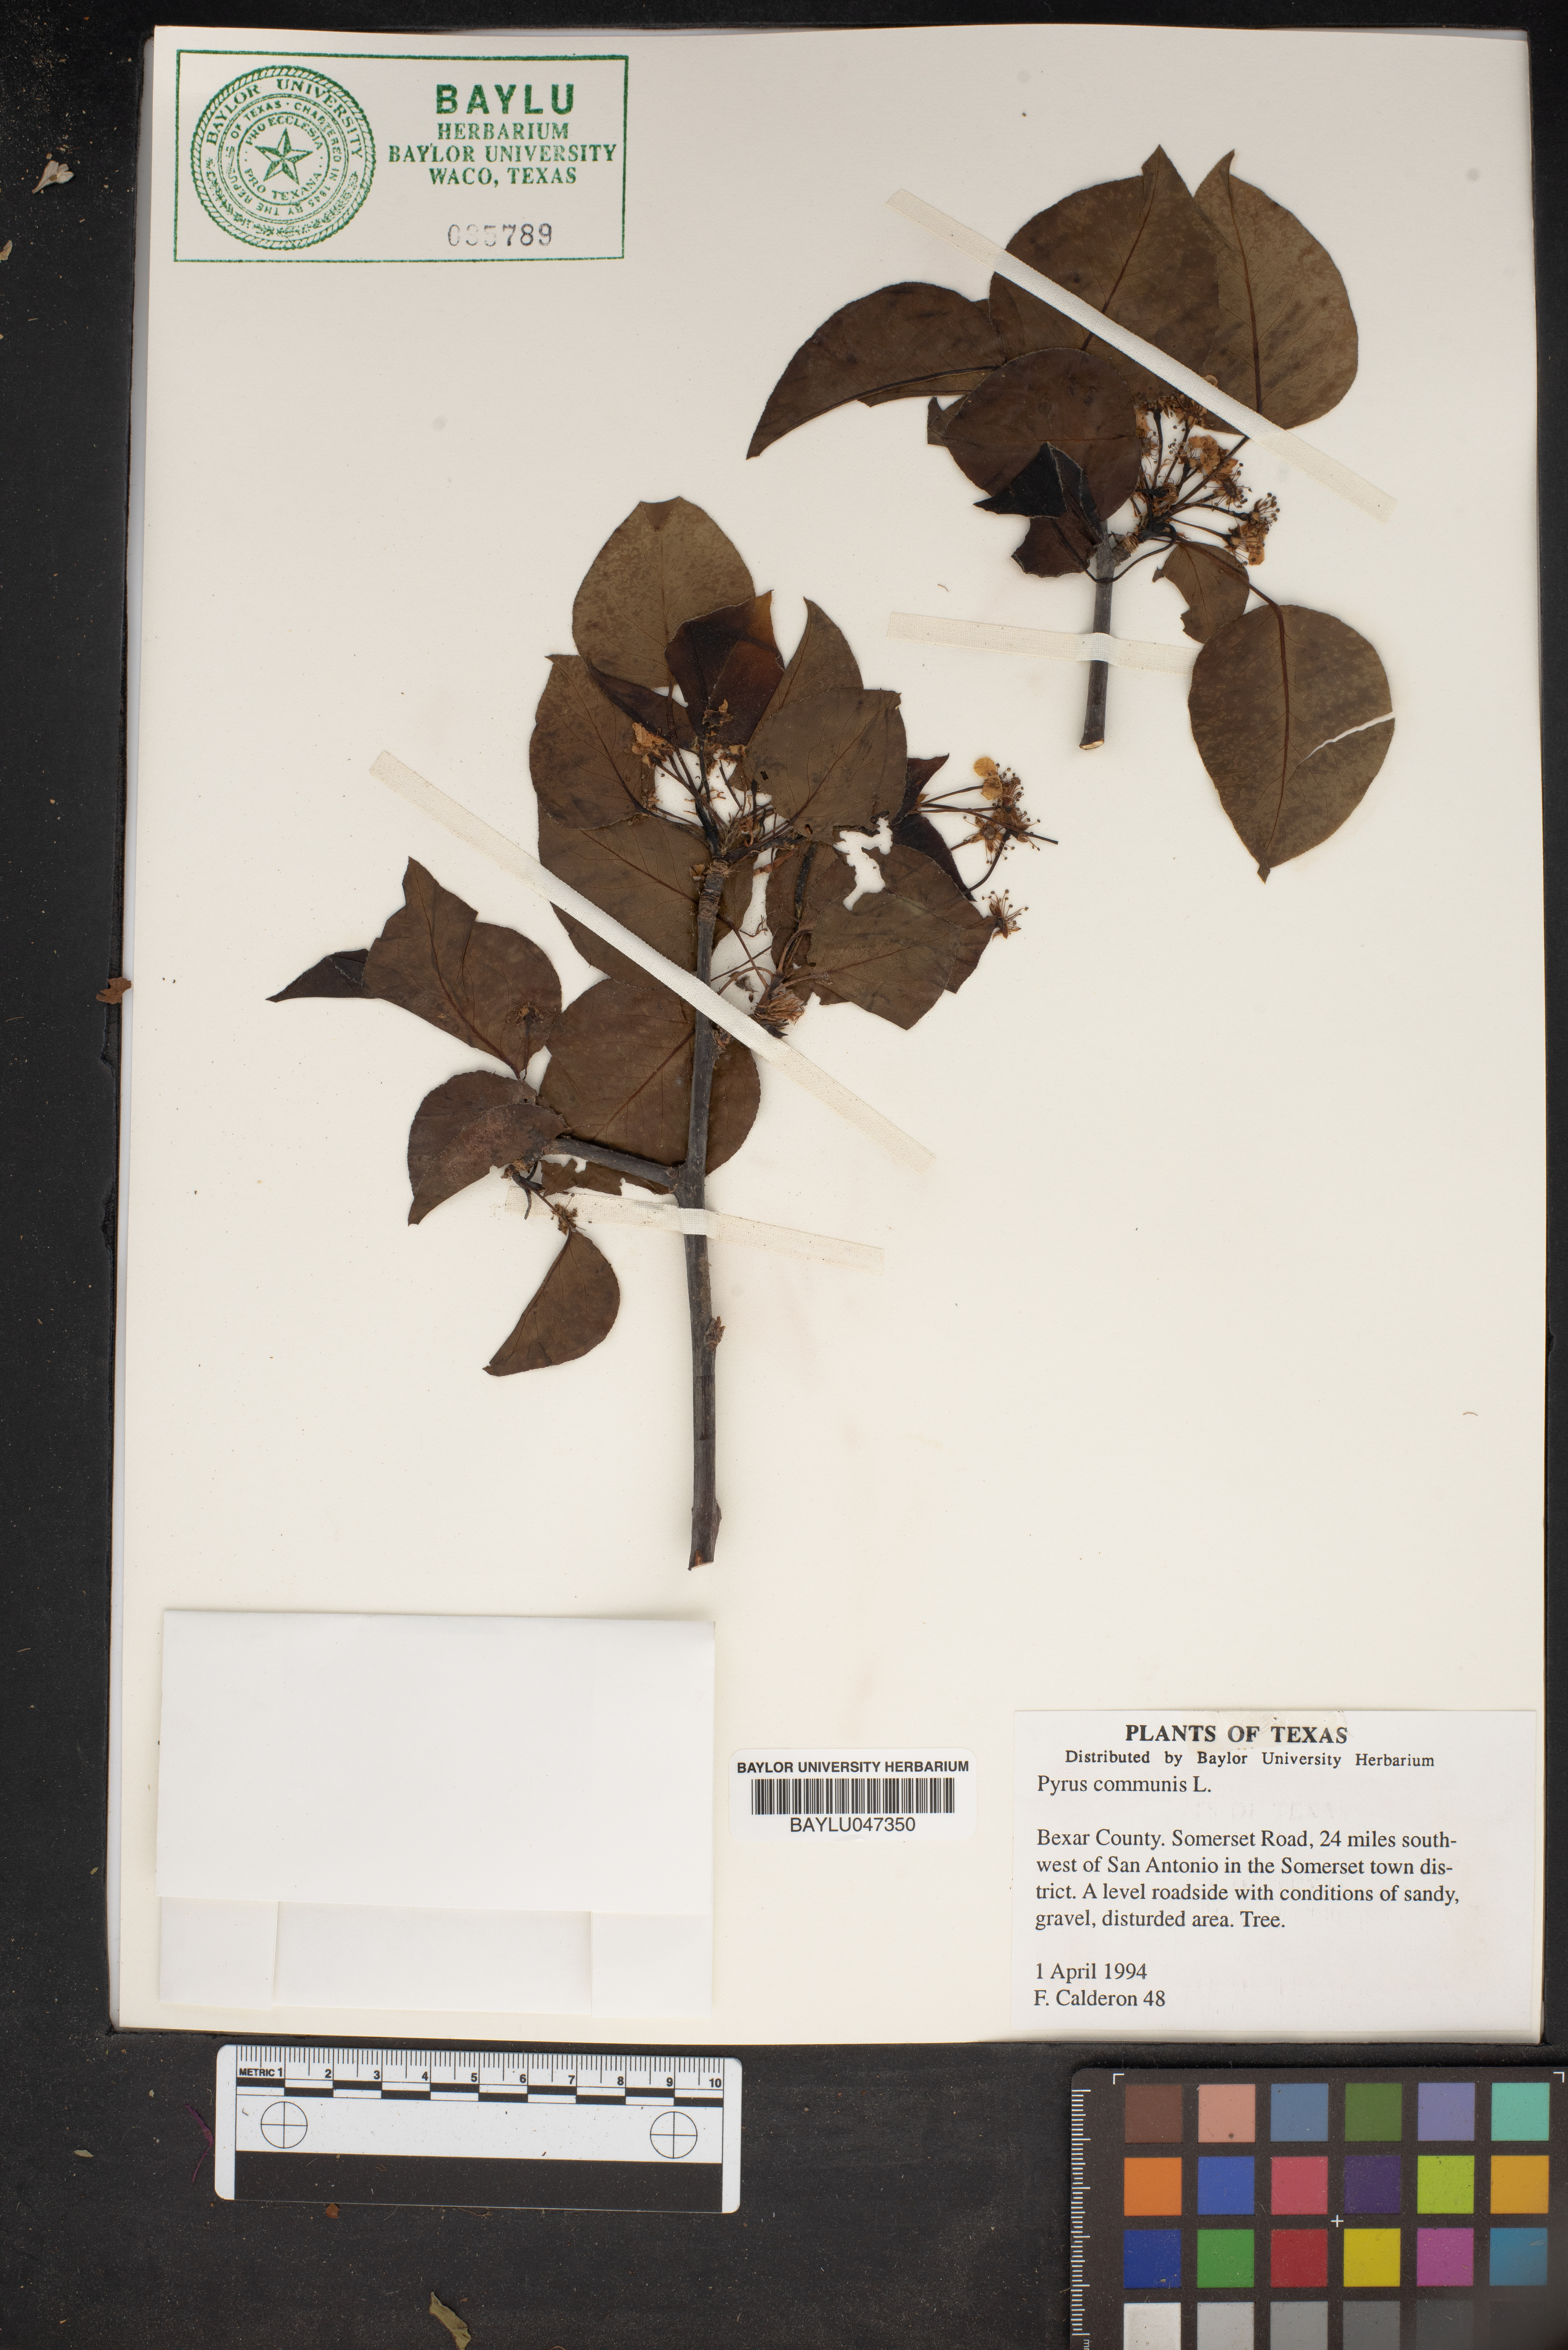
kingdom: Plantae
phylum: Tracheophyta
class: Magnoliopsida
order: Rosales
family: Rosaceae
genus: Pyrus
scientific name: Pyrus communis
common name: Pear
